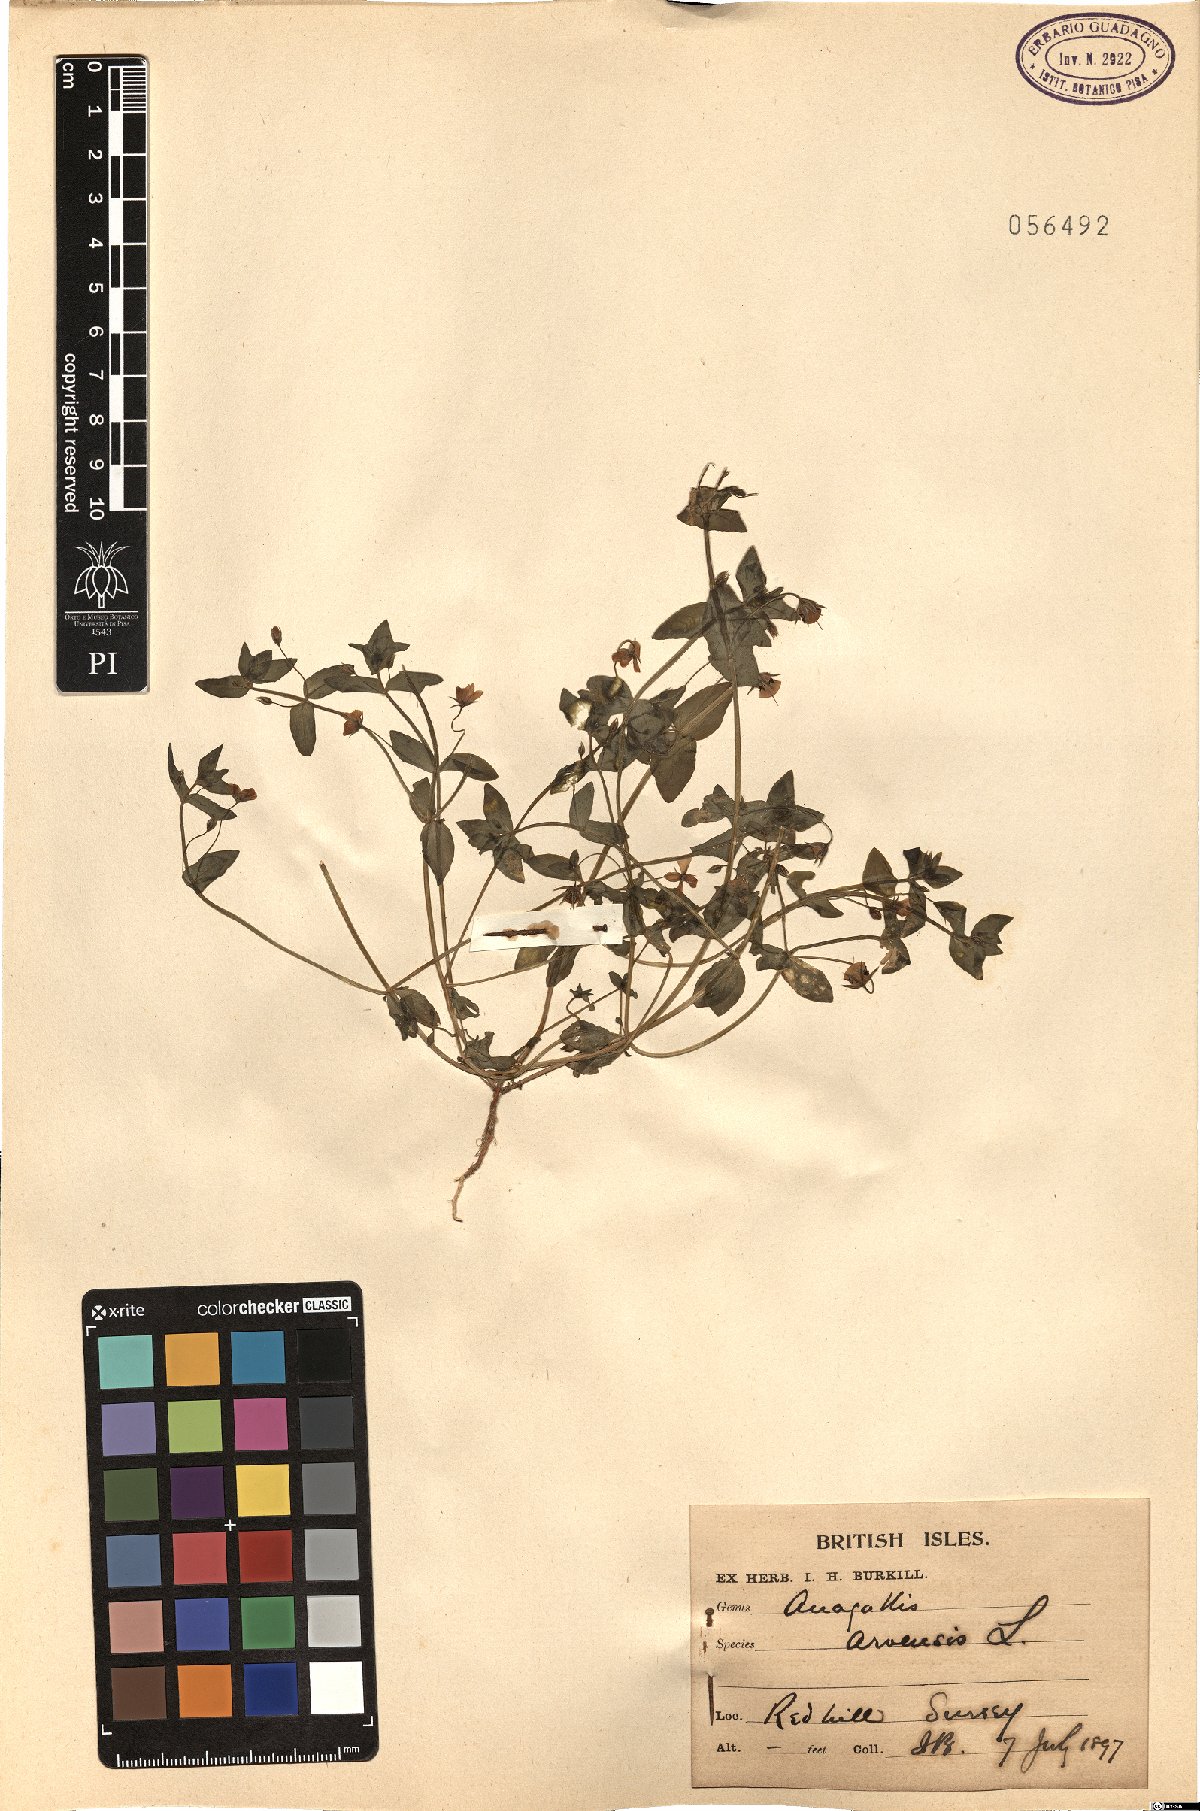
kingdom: Plantae
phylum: Tracheophyta
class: Magnoliopsida
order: Ericales
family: Primulaceae
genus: Lysimachia
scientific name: Lysimachia arvensis
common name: Scarlet pimpernel
